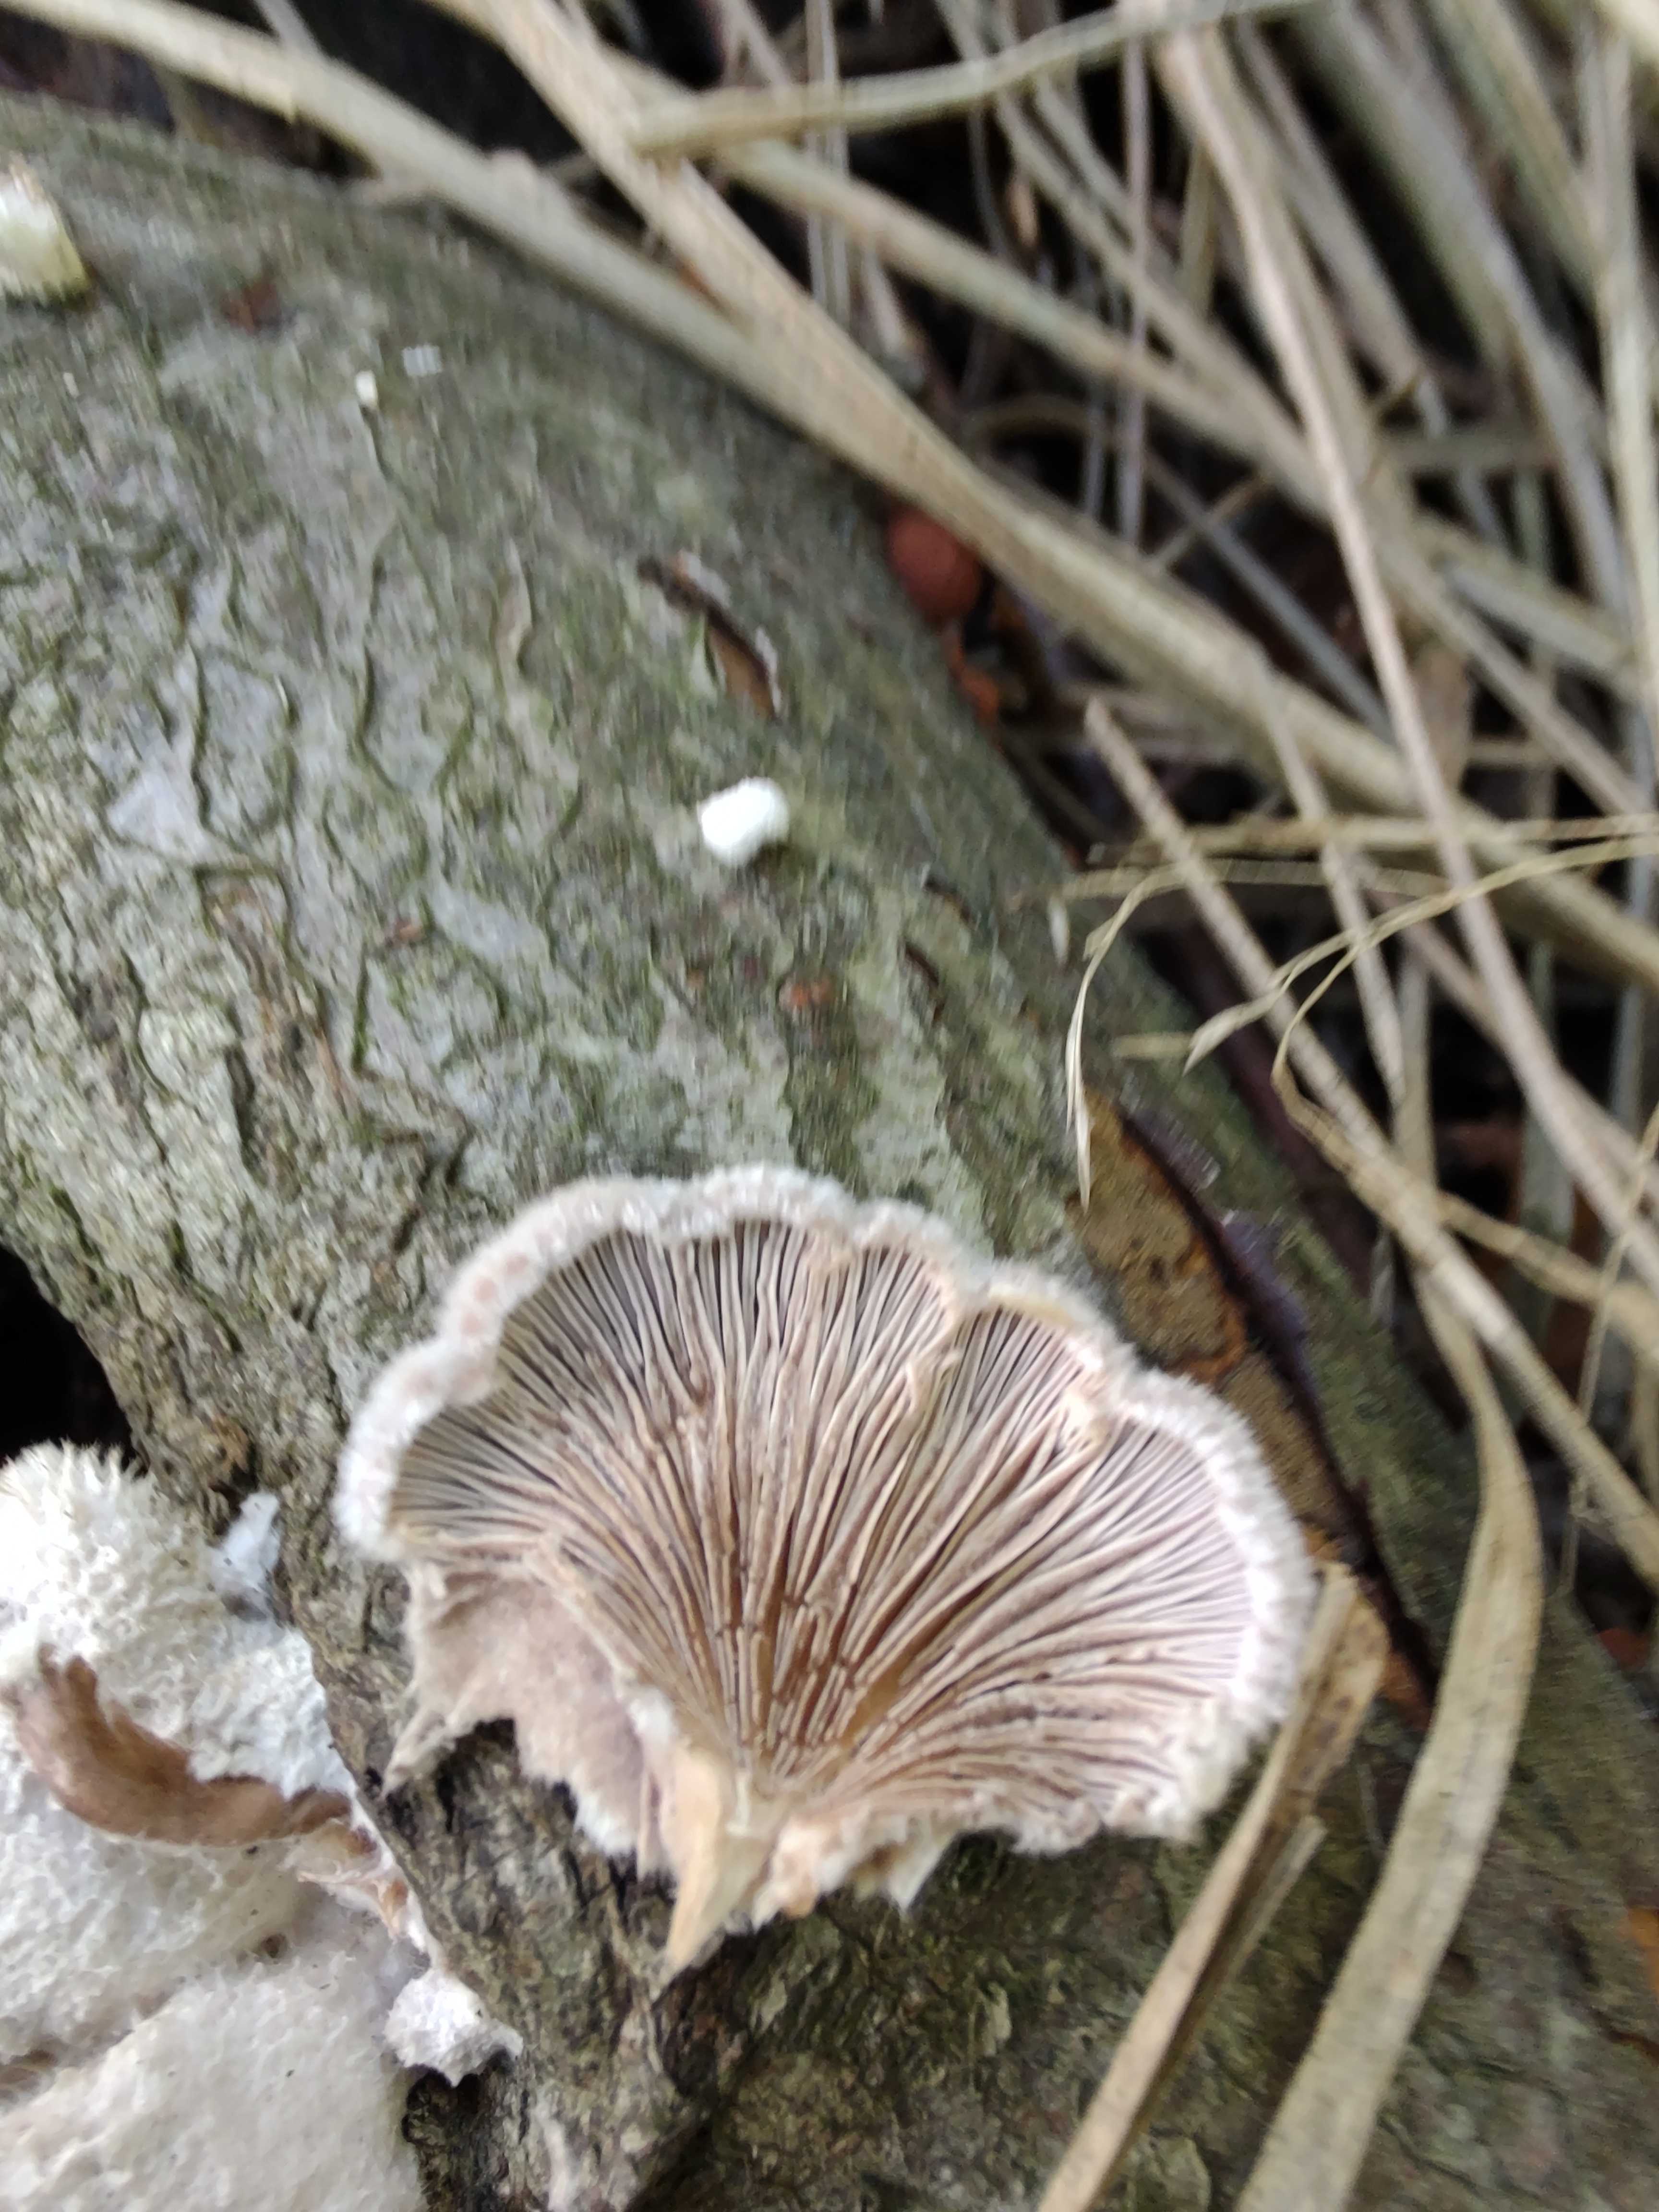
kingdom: Fungi
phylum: Basidiomycota
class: Agaricomycetes
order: Agaricales
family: Schizophyllaceae
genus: Schizophyllum
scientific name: Schizophyllum commune
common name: kløvblad
